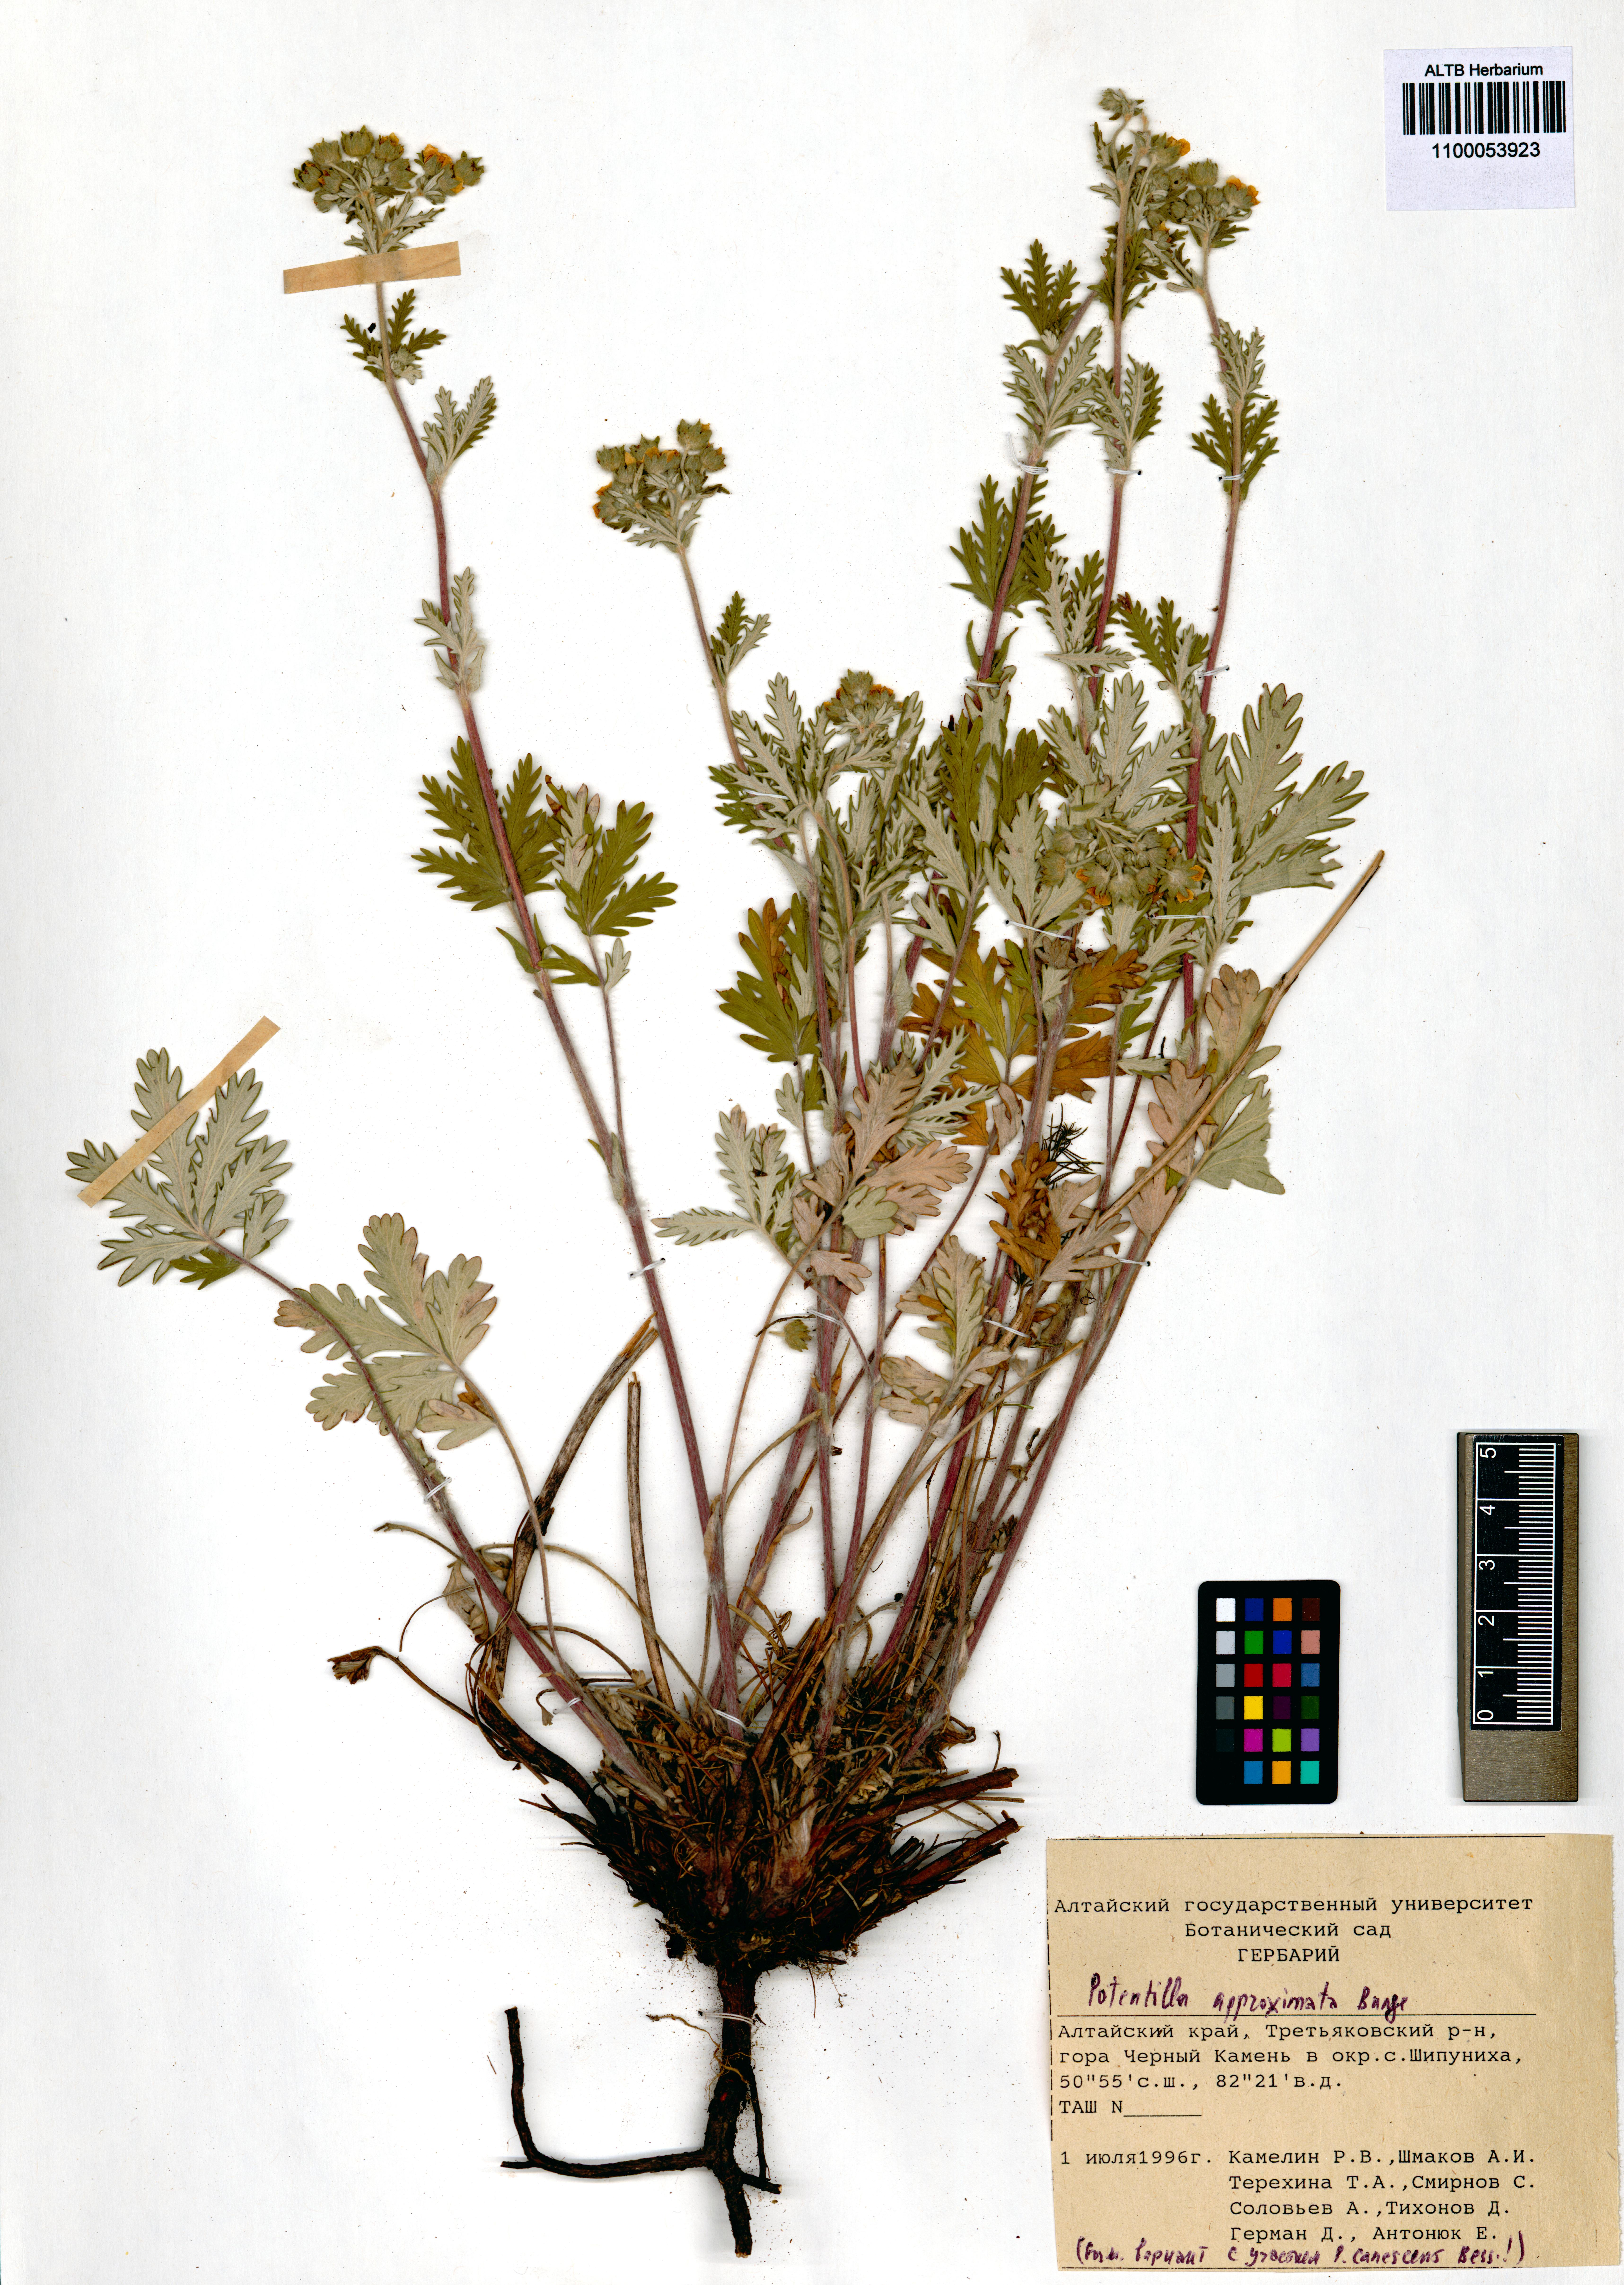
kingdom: Plantae
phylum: Tracheophyta
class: Magnoliopsida
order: Rosales
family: Rosaceae
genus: Potentilla
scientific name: Potentilla conferta
